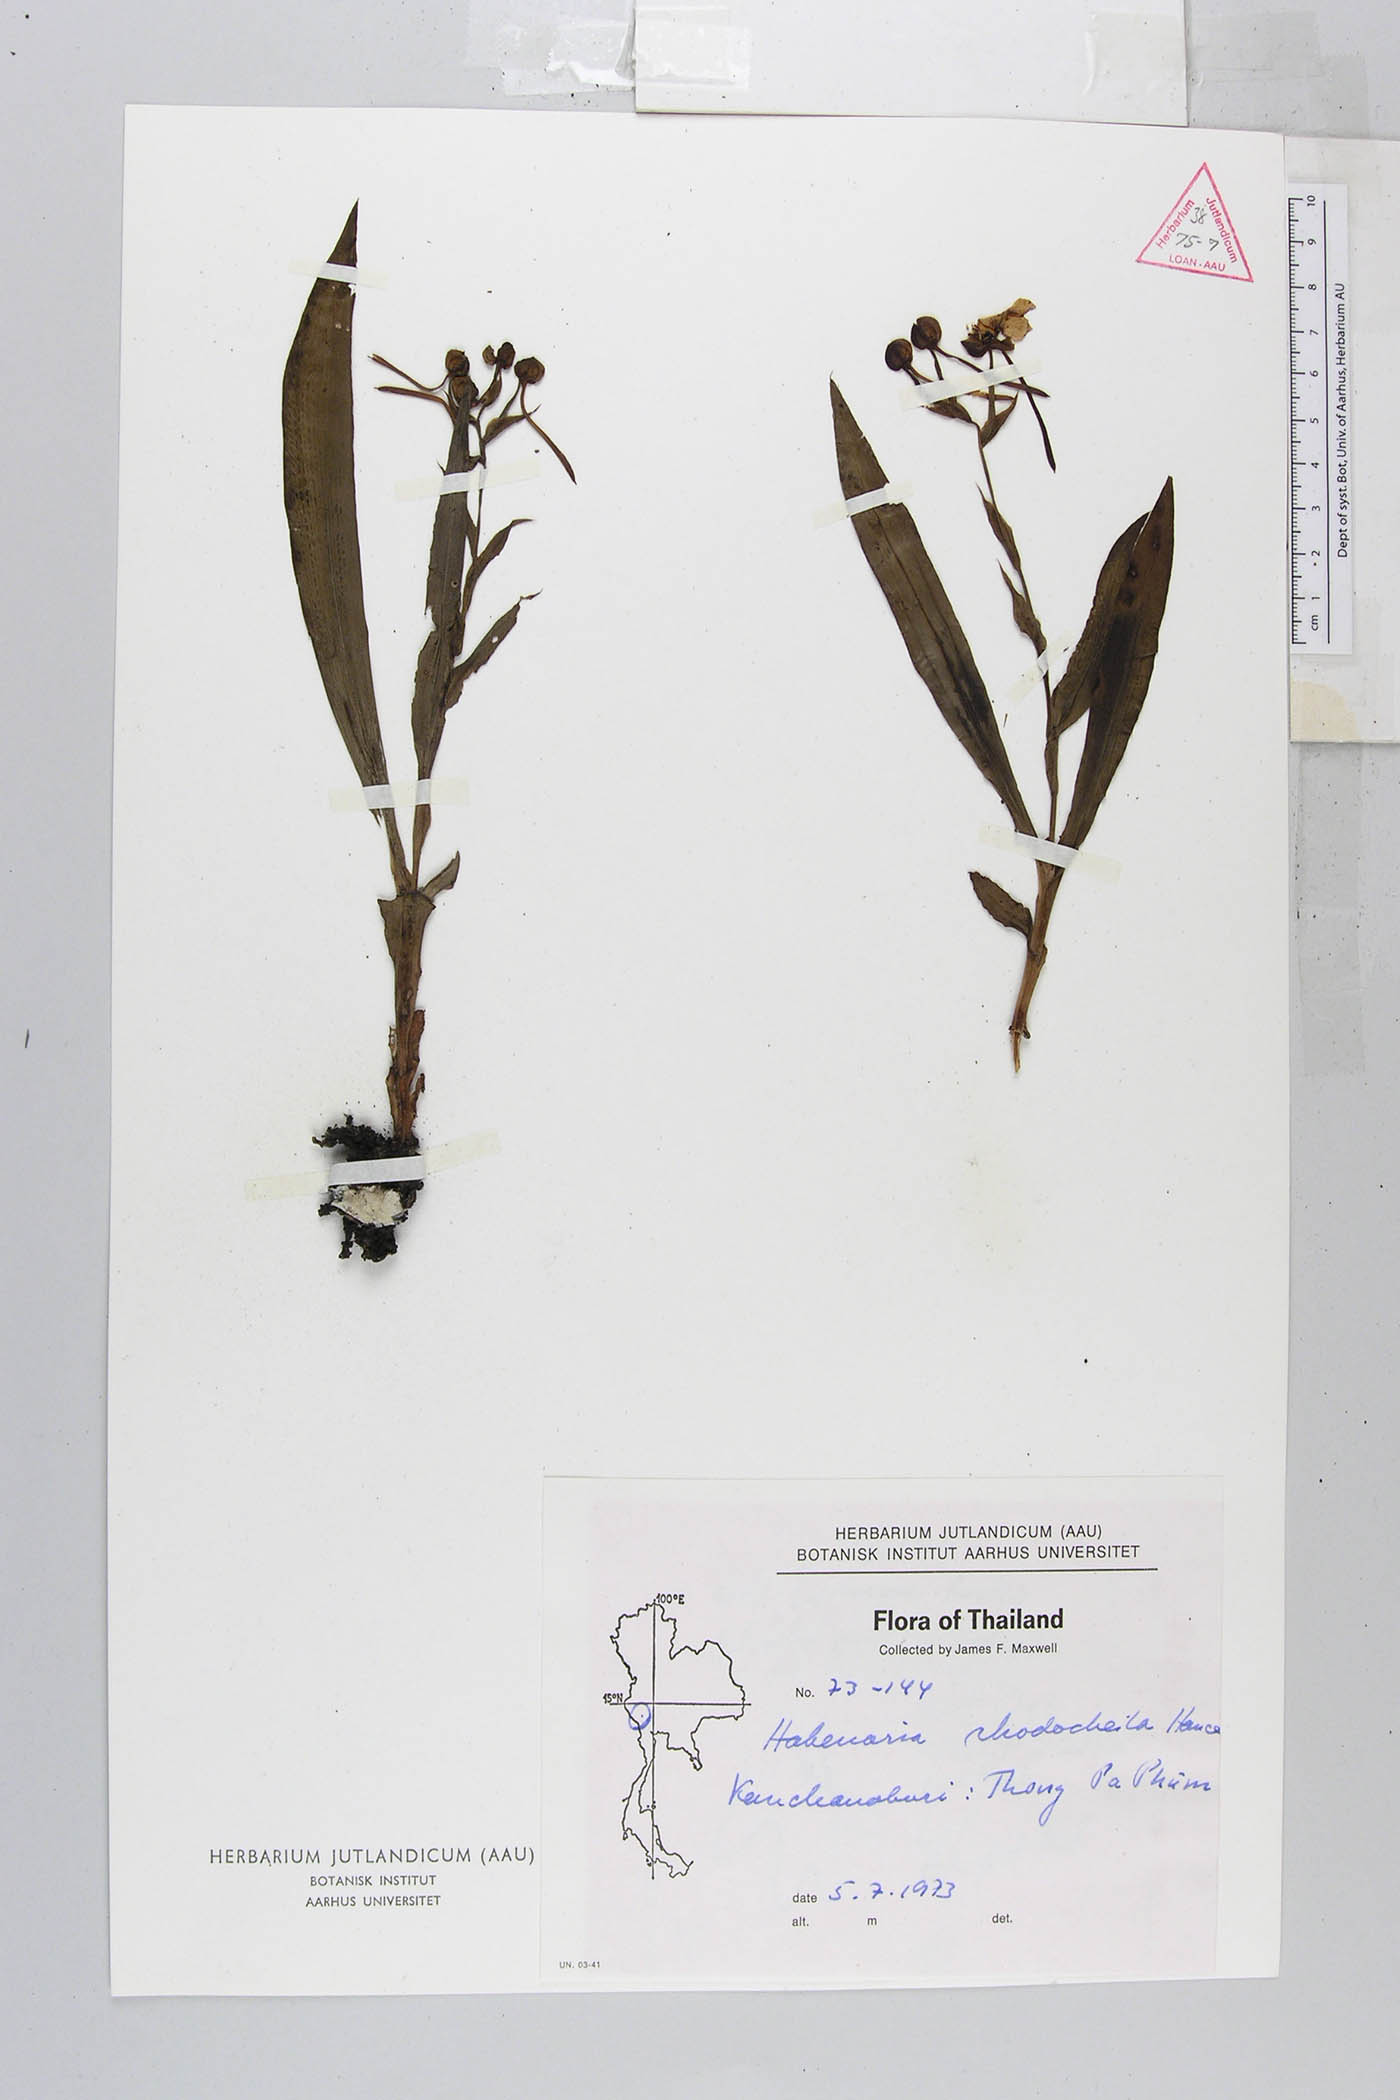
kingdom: Plantae
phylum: Tracheophyta
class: Liliopsida
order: Asparagales
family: Orchidaceae
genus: Habenaria
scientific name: Habenaria rhodocheila
